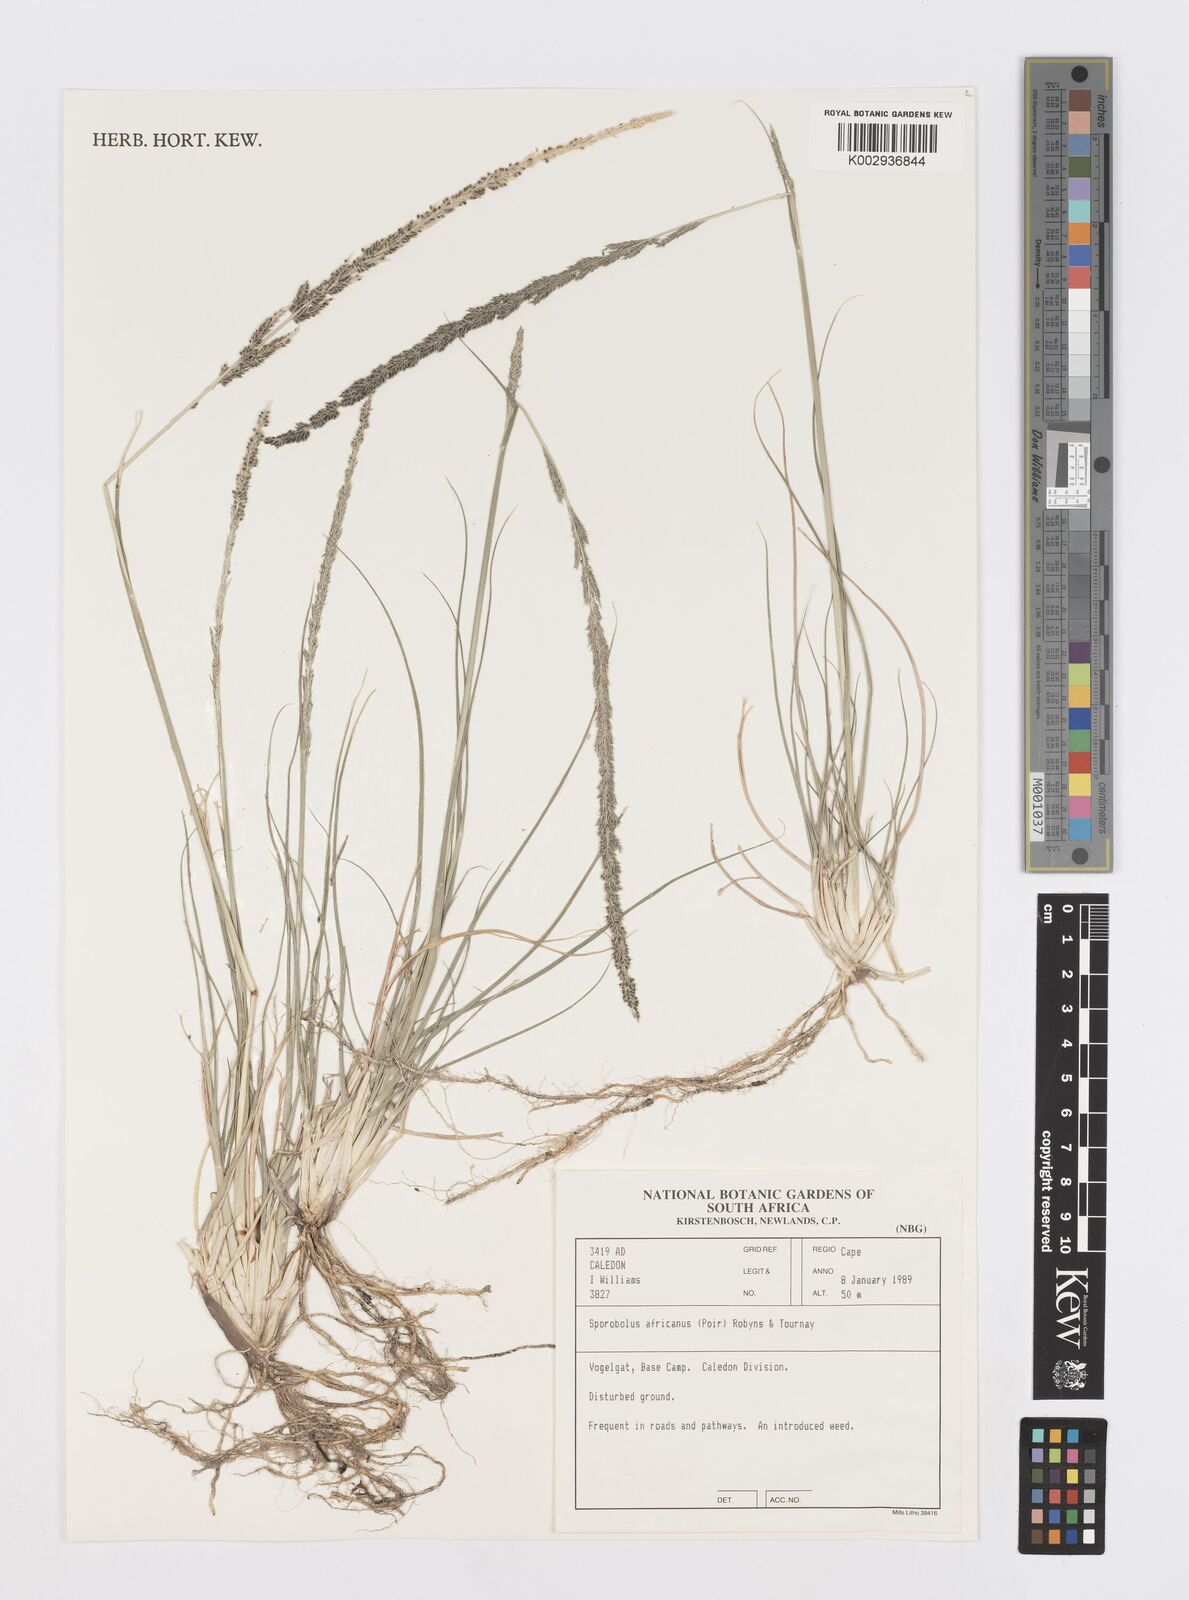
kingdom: Plantae
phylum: Tracheophyta
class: Liliopsida
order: Poales
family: Poaceae
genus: Sporobolus
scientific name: Sporobolus africanus
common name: African dropseed
